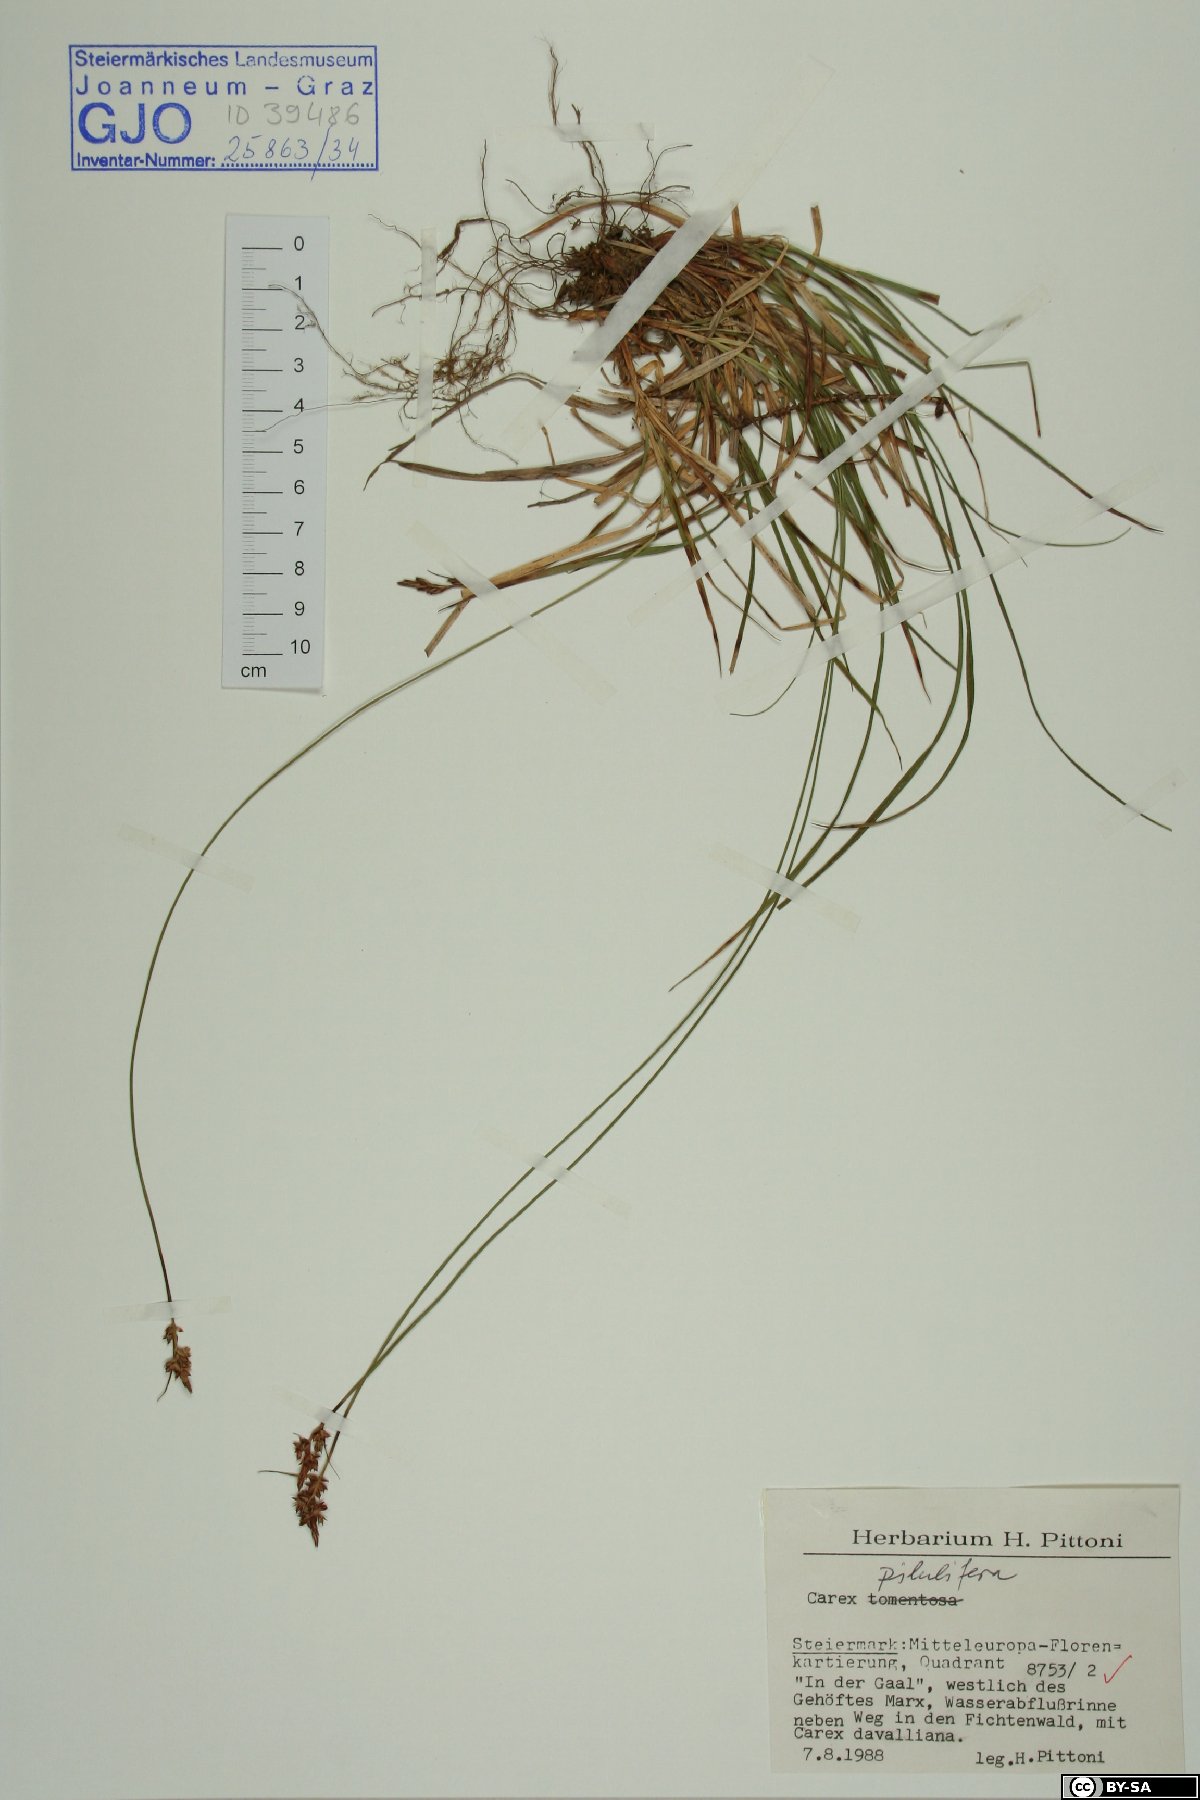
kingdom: Plantae
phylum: Tracheophyta
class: Liliopsida
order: Poales
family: Cyperaceae
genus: Carex
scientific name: Carex pilulifera
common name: Pill sedge
